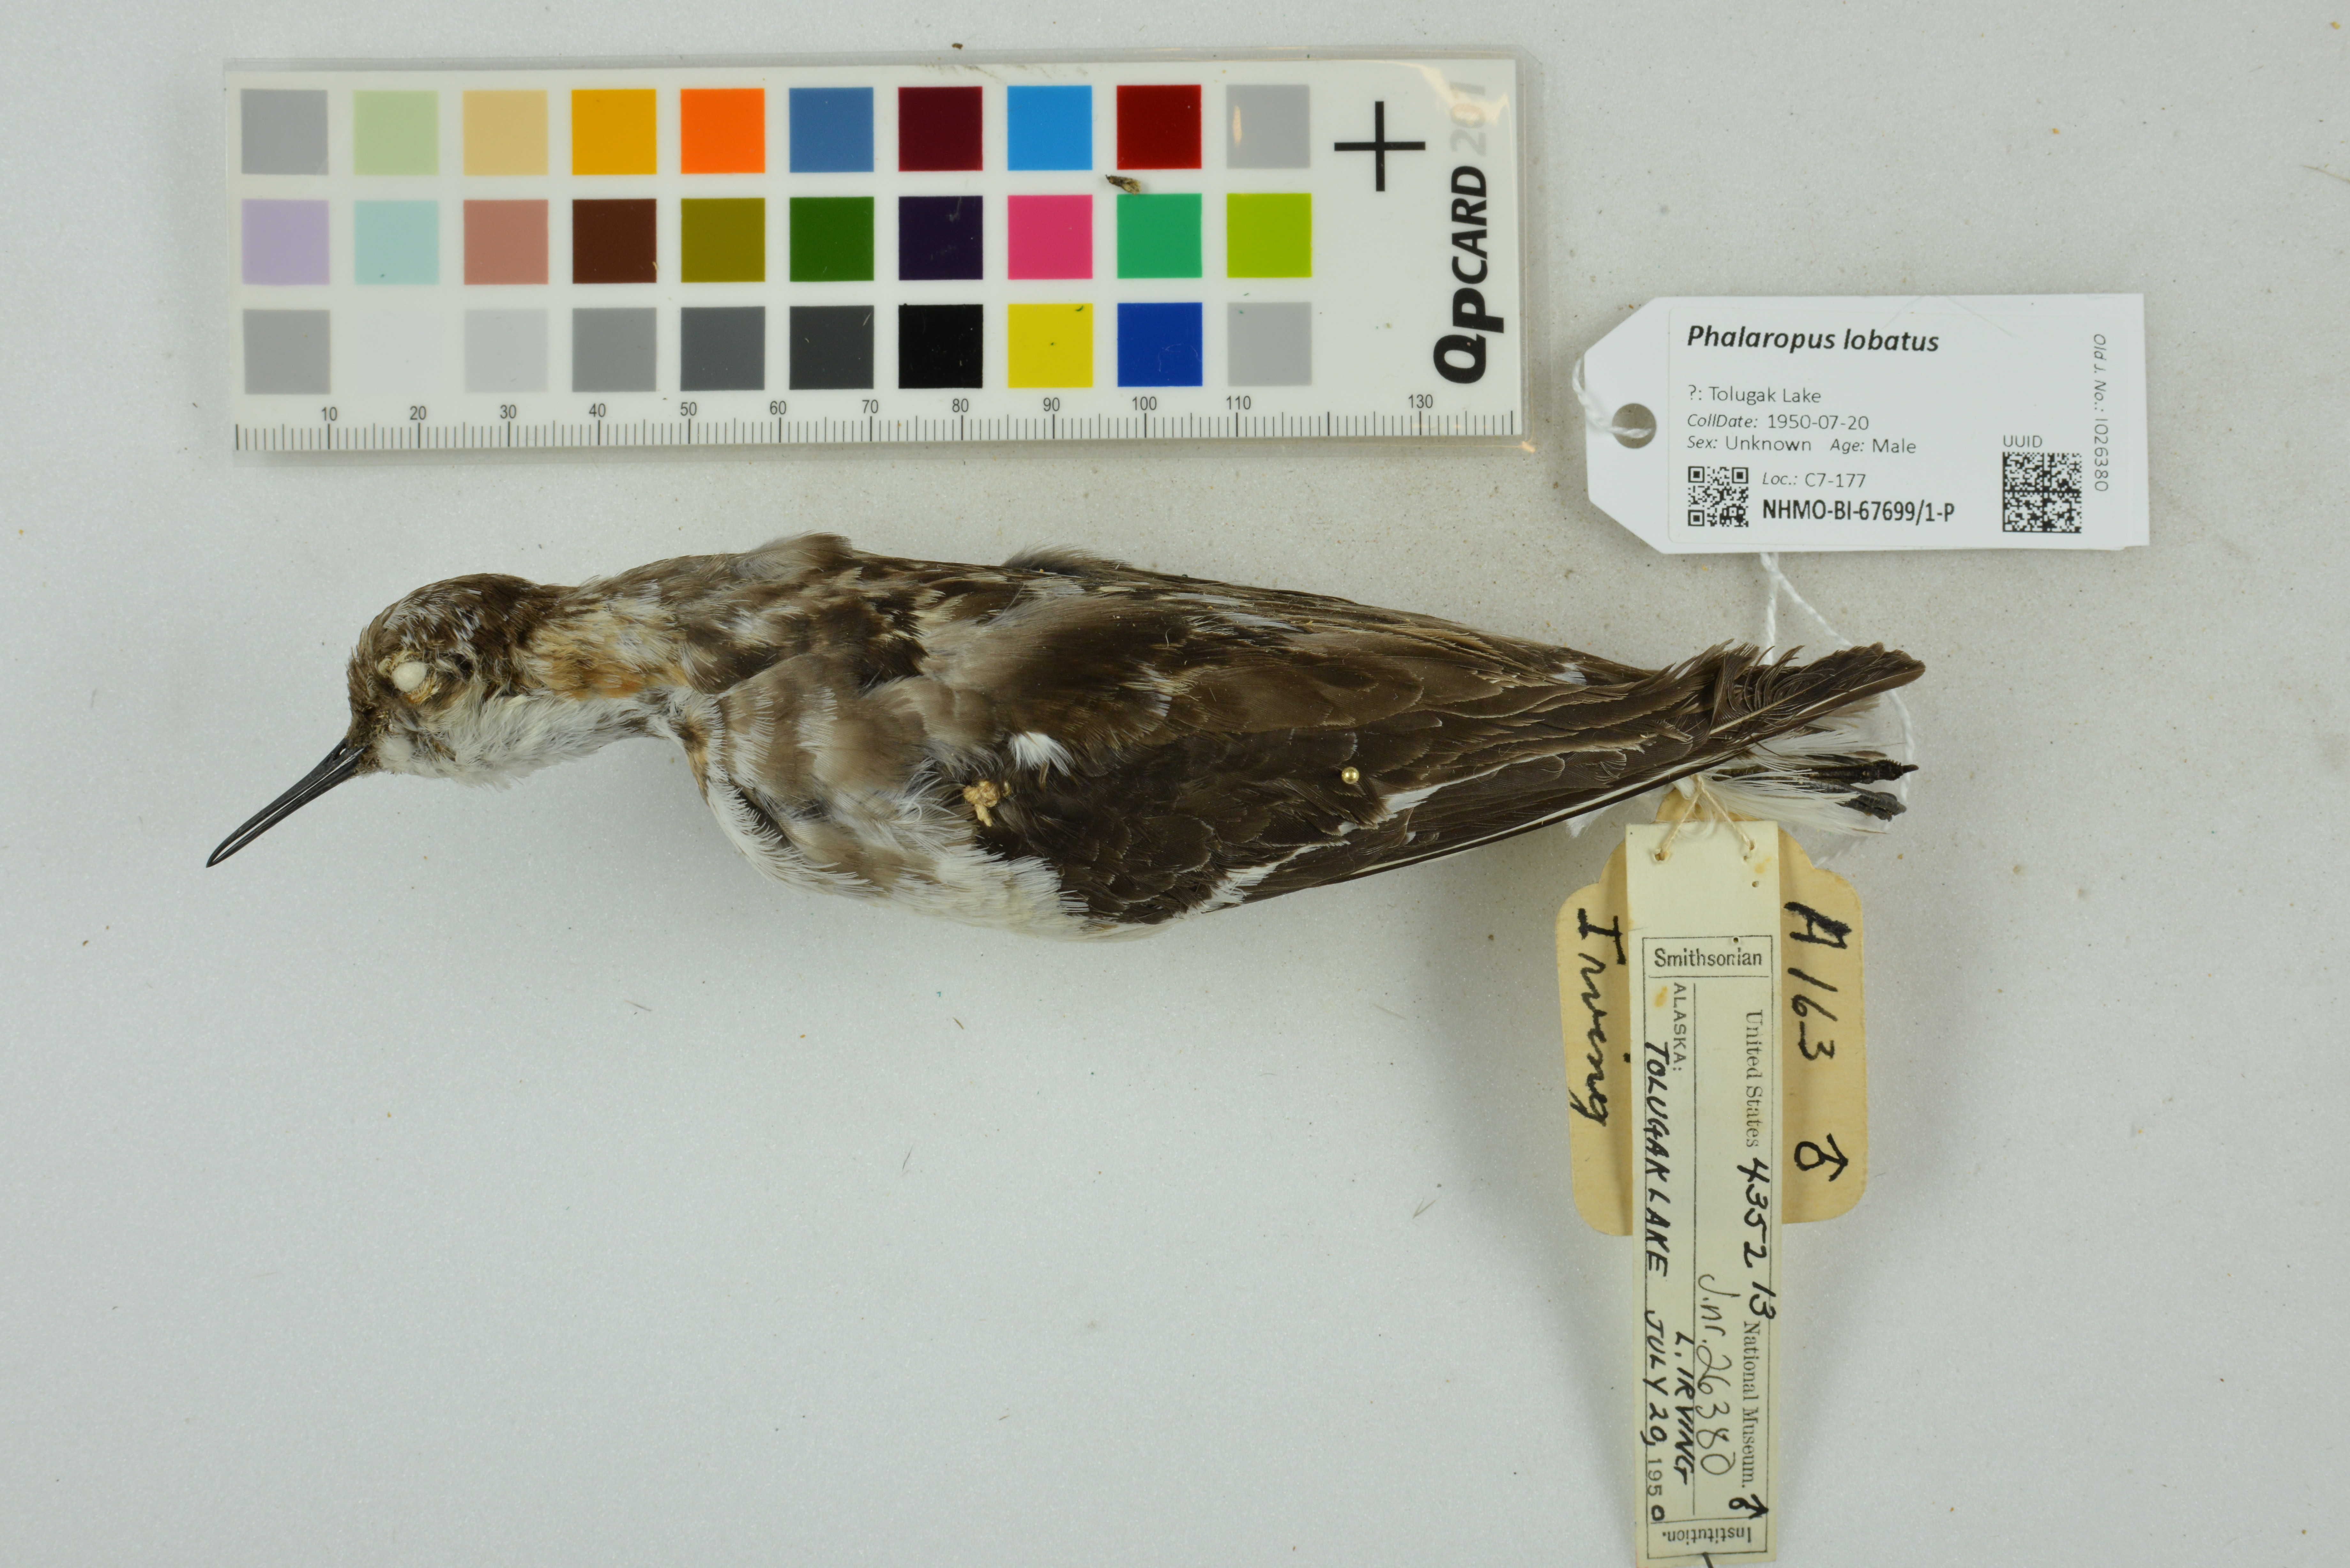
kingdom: Animalia
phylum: Chordata
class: Aves
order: Charadriiformes
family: Scolopacidae
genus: Phalaropus
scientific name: Phalaropus lobatus
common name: Red-necked phalarope
